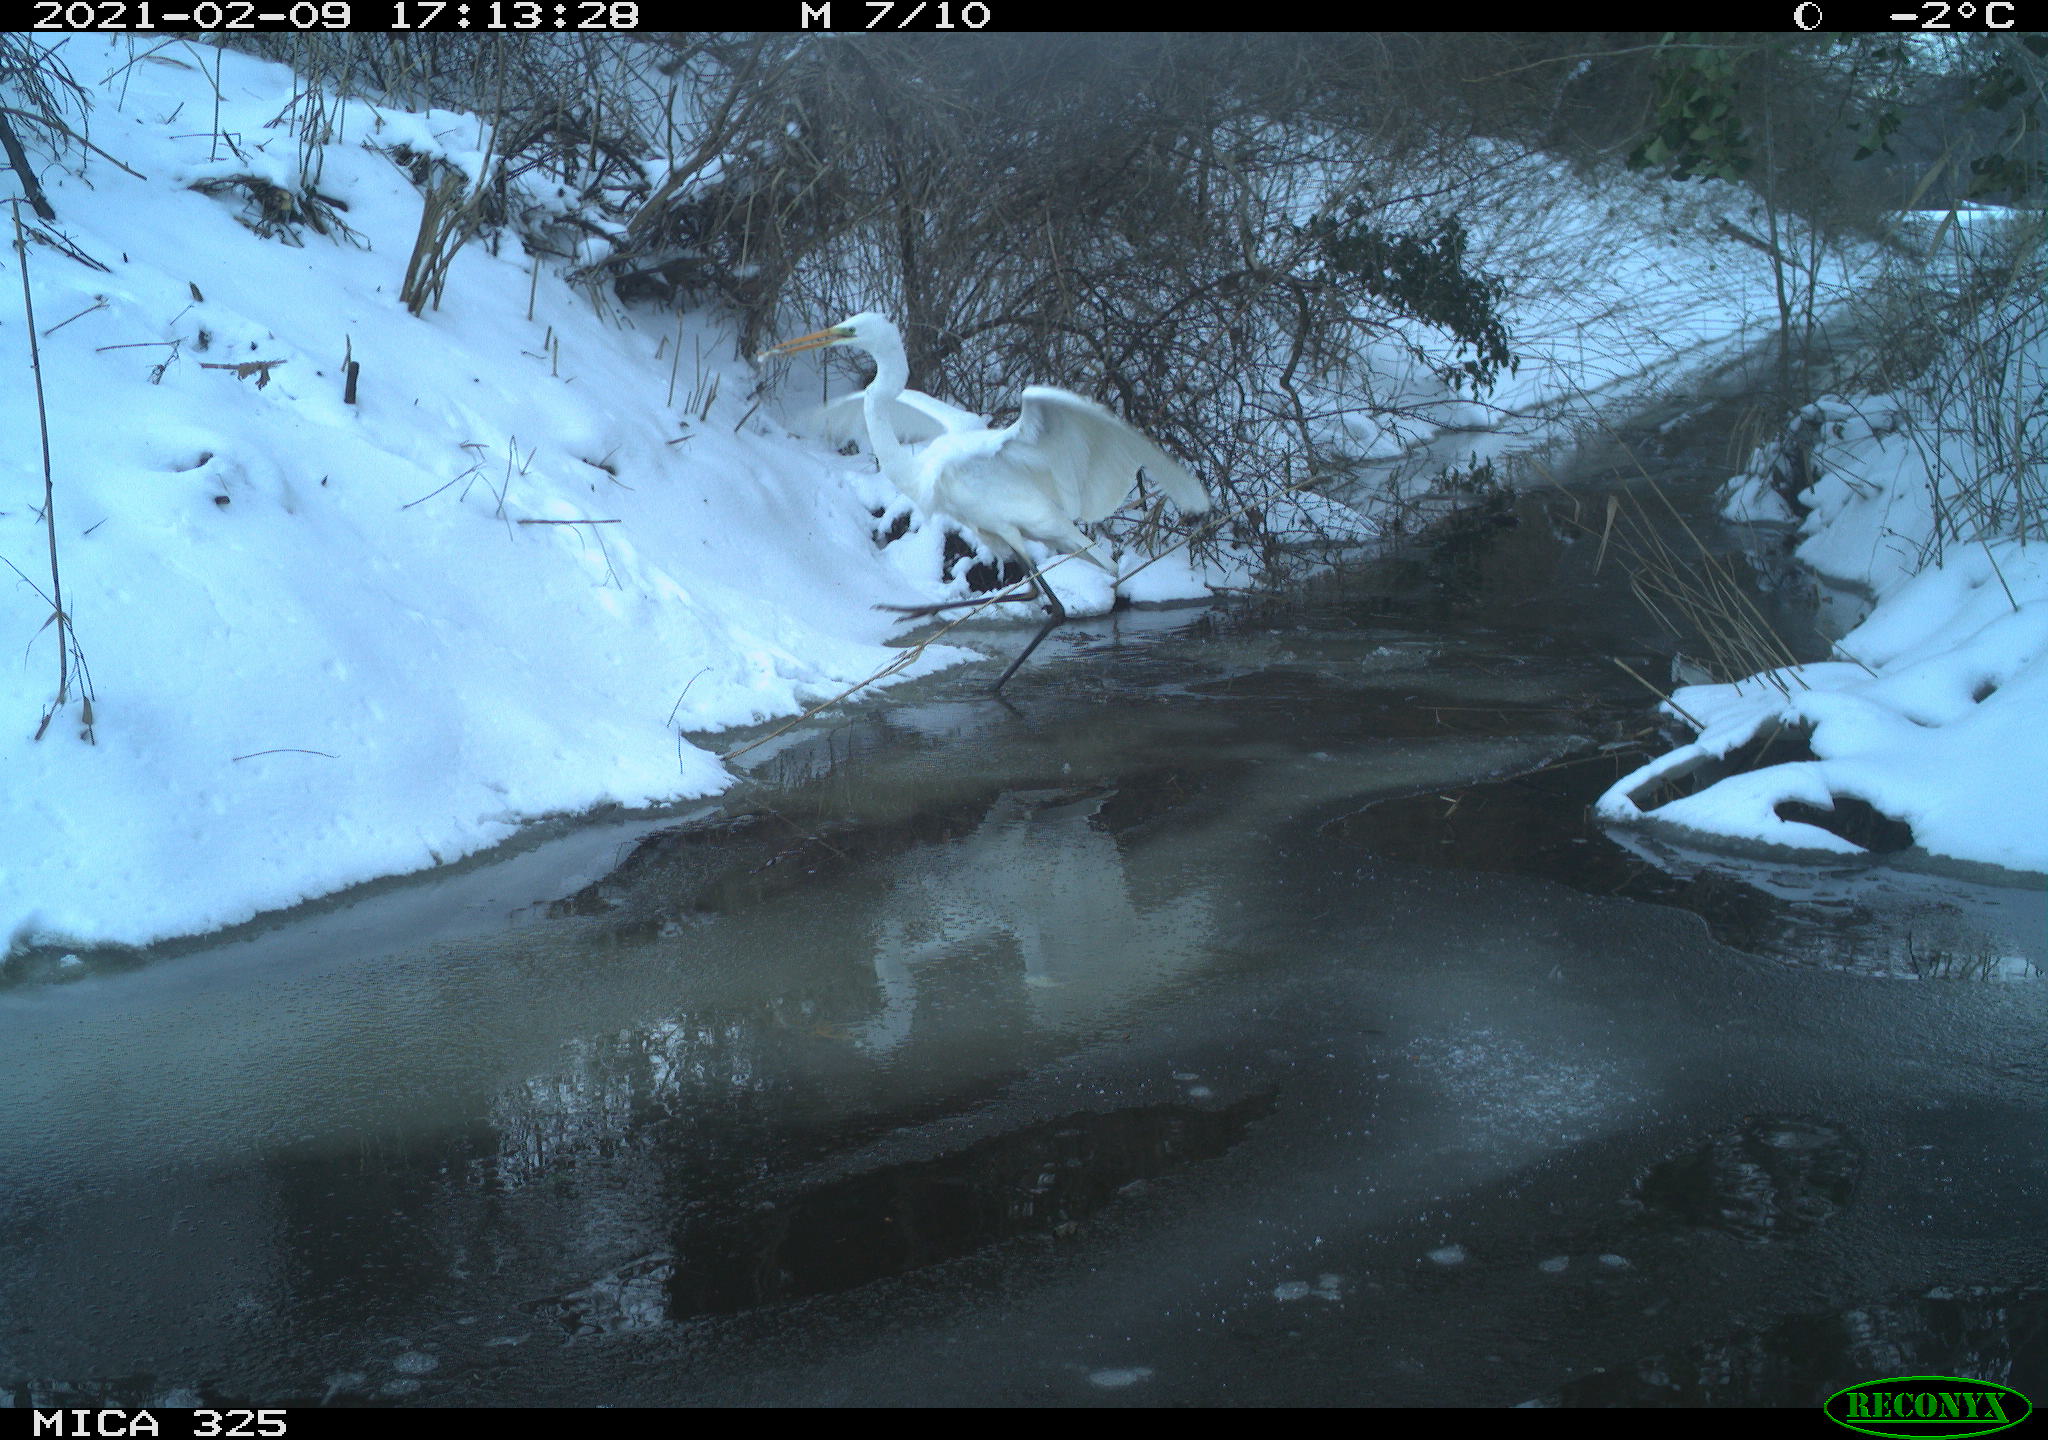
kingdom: Animalia
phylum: Chordata
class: Aves
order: Pelecaniformes
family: Ardeidae
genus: Ardea
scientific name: Ardea alba
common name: Great egret
